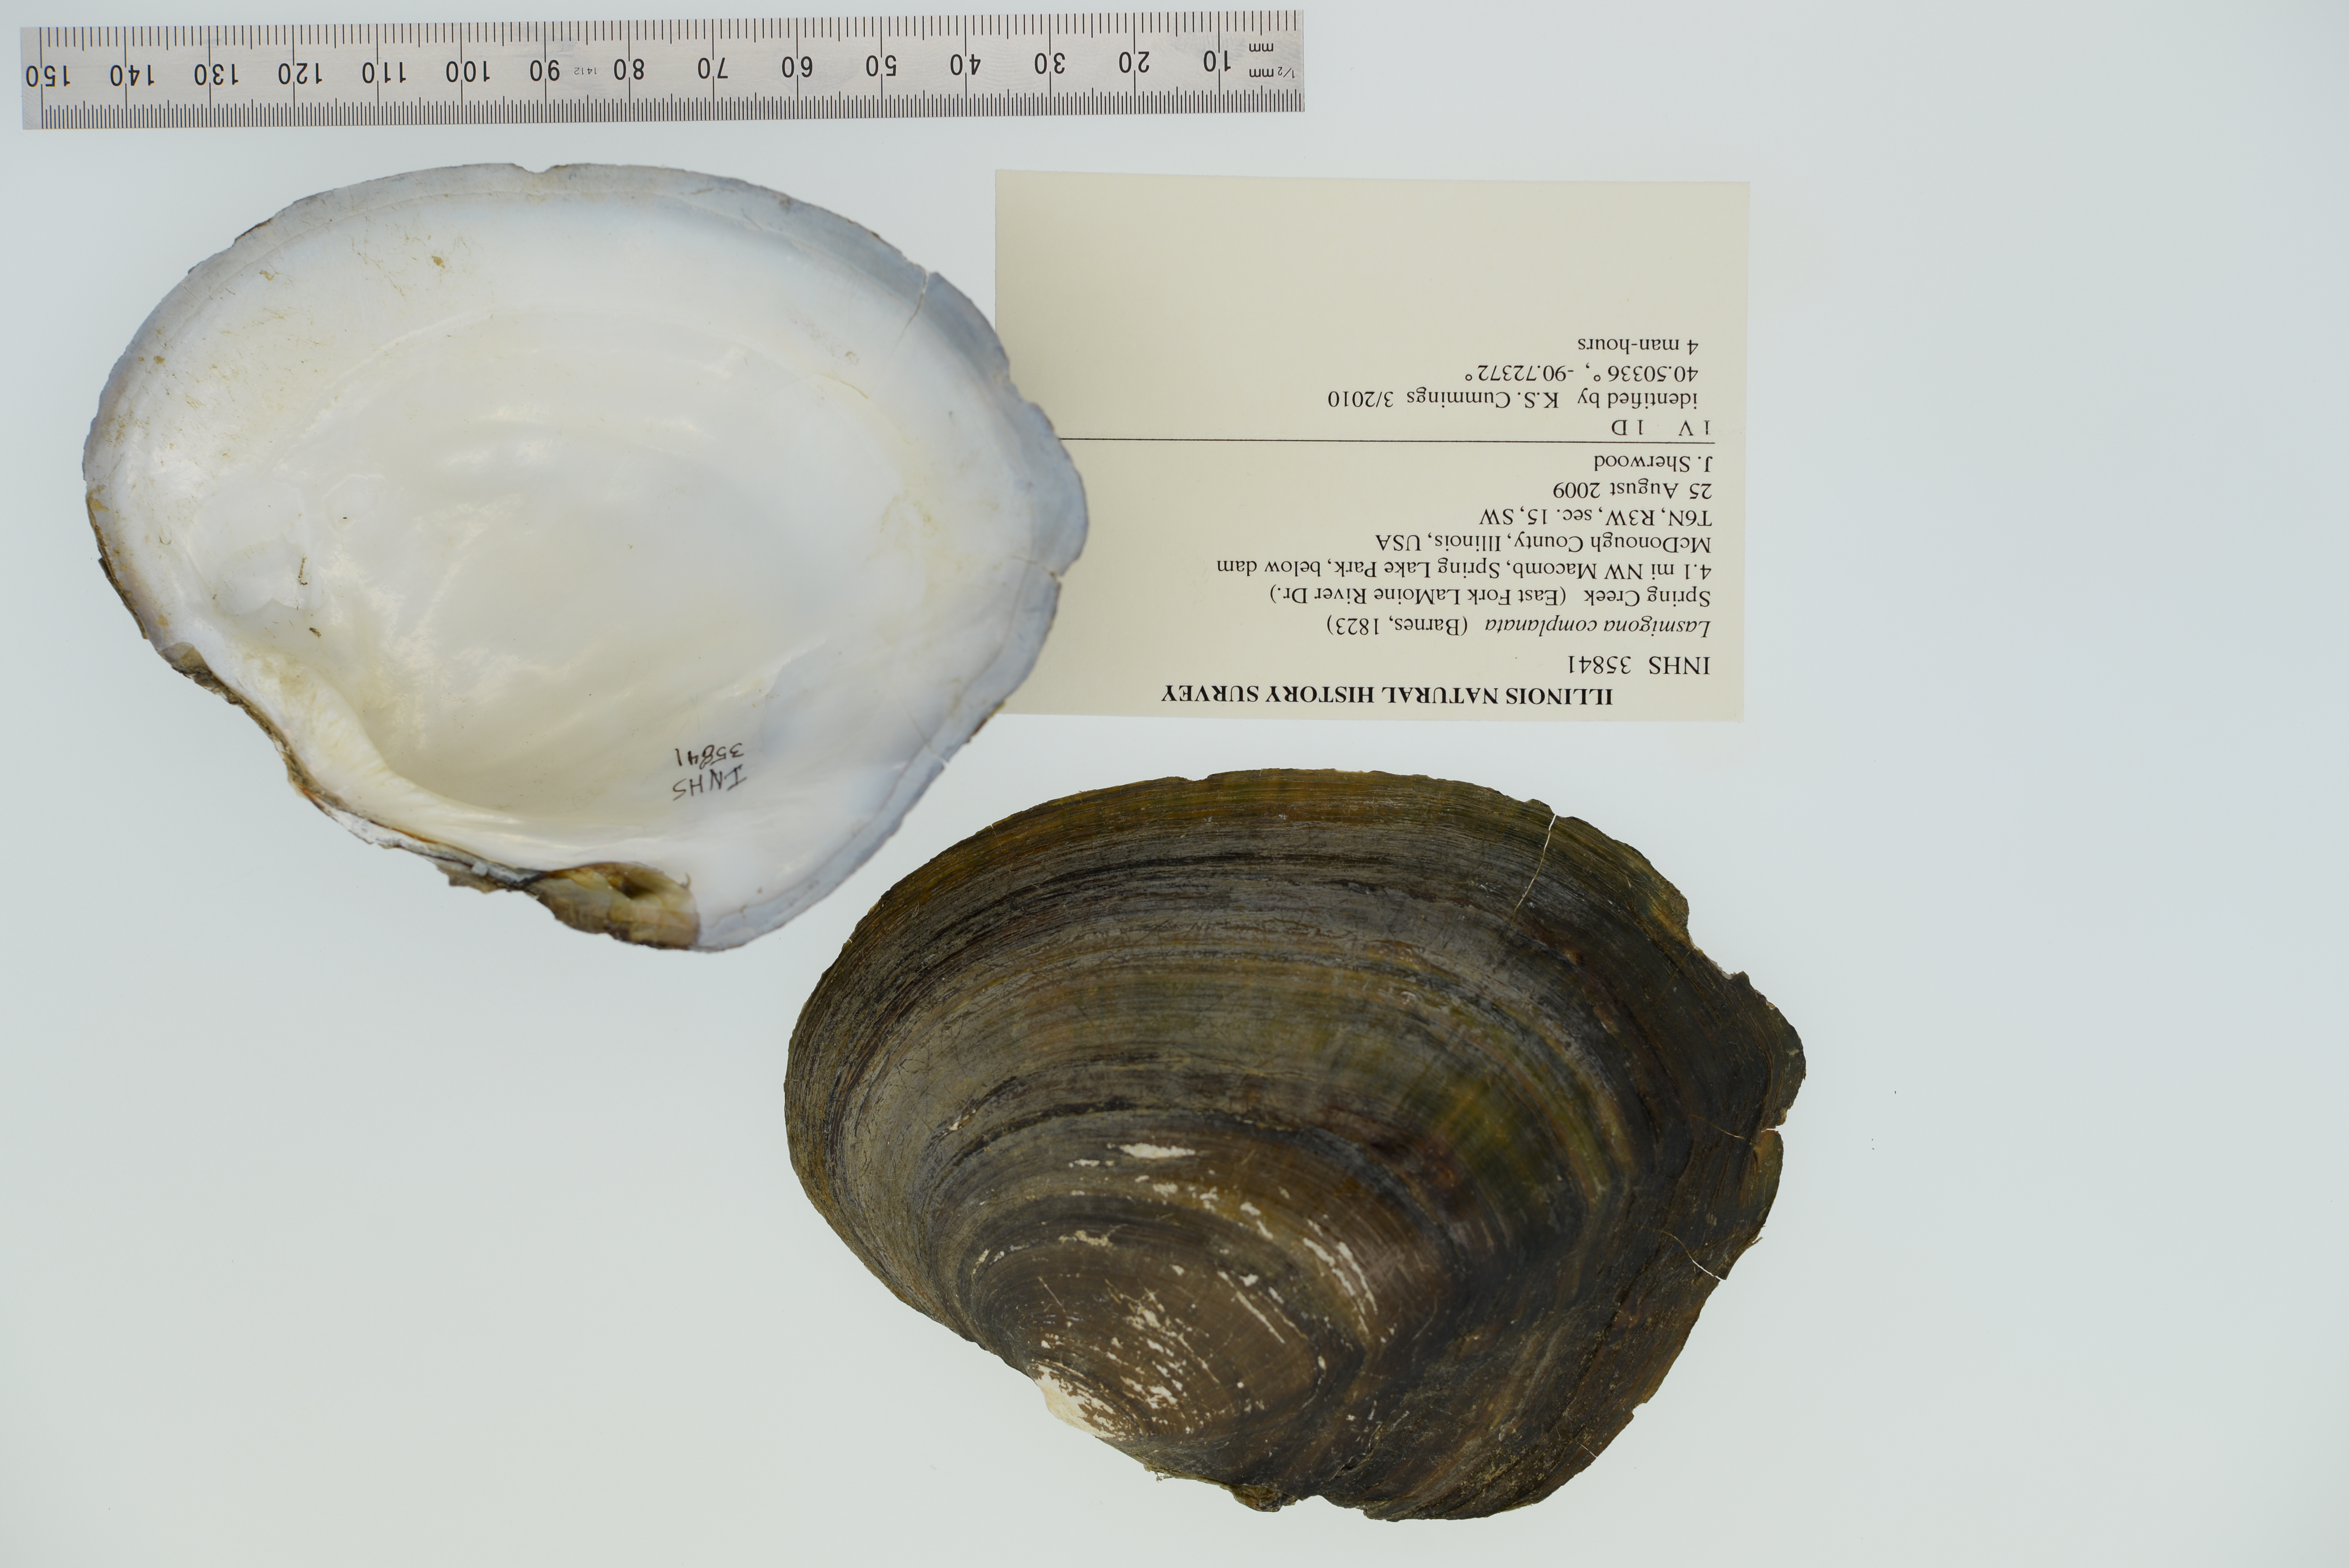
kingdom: Animalia
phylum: Mollusca
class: Bivalvia
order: Unionida
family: Unionidae
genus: Lasmigona
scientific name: Lasmigona complanata
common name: White heelsplitter
